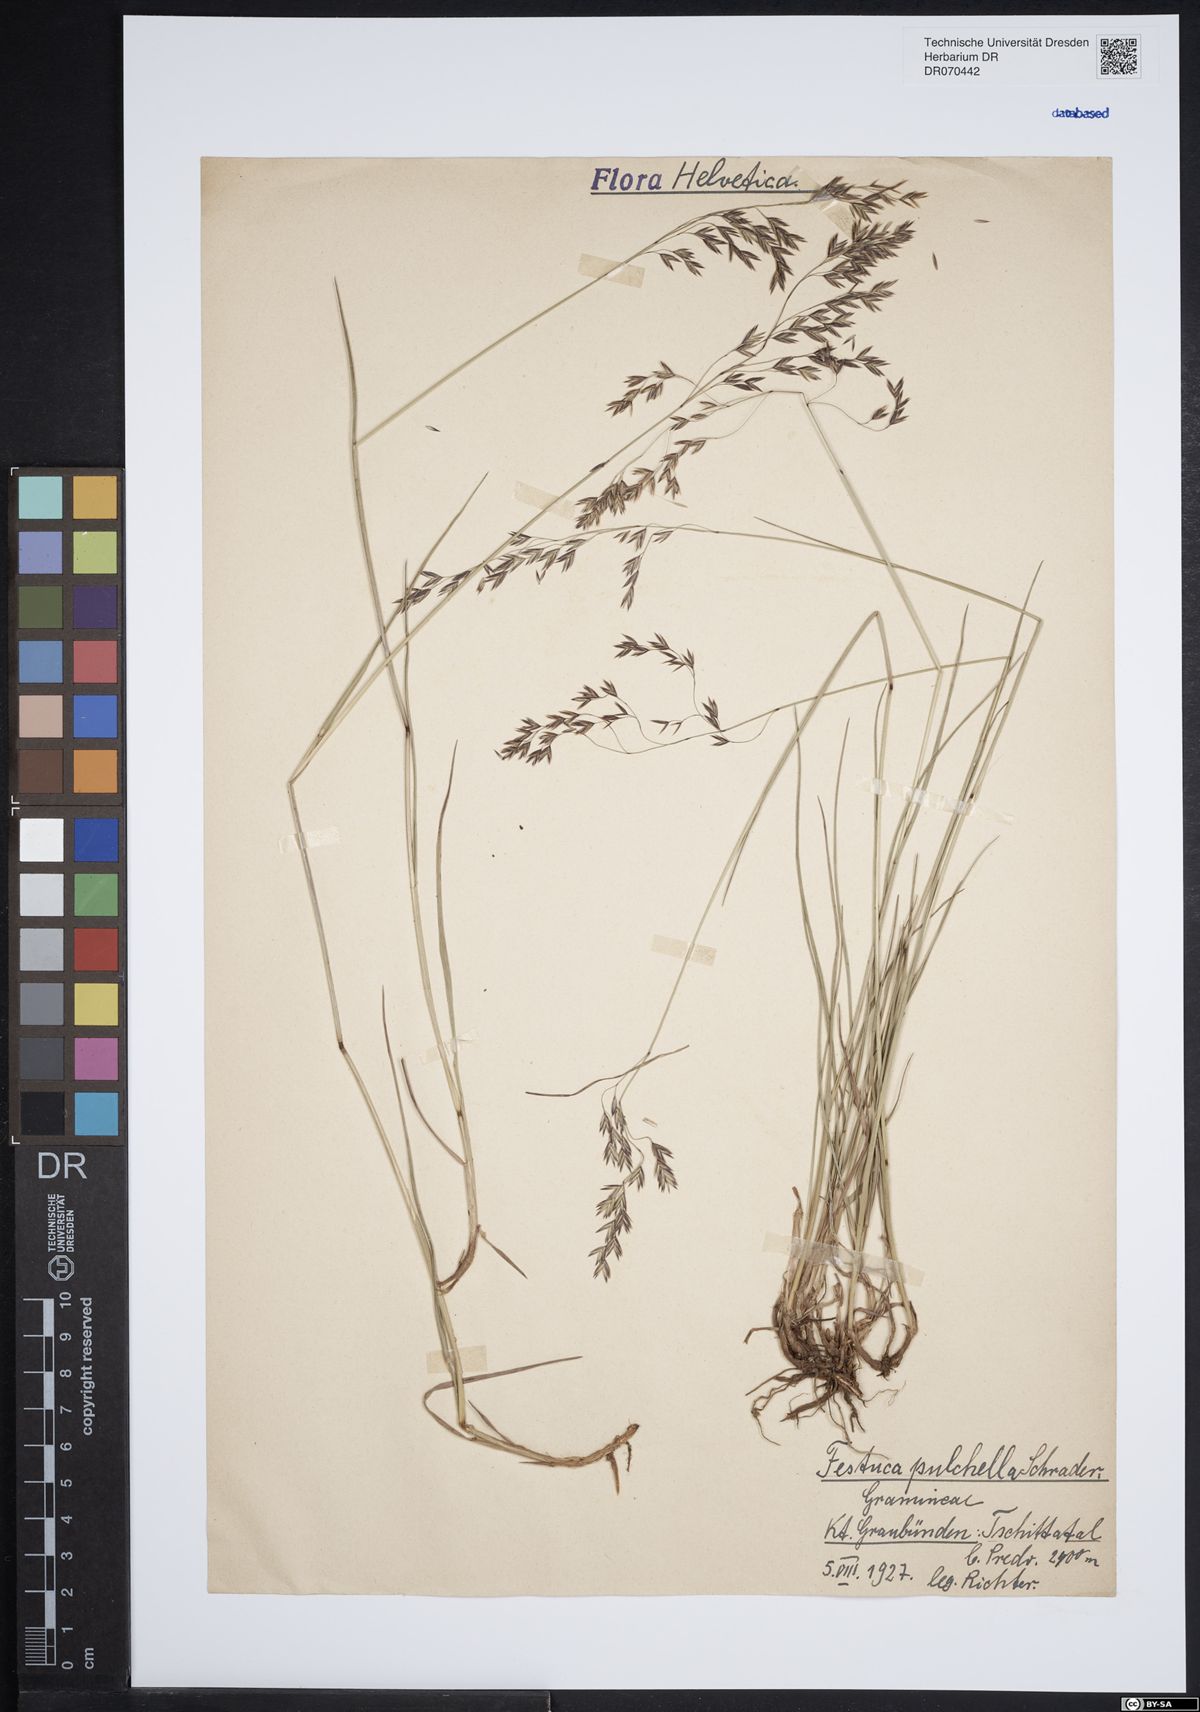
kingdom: Plantae
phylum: Tracheophyta
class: Liliopsida
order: Poales
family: Poaceae
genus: Festuca
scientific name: Festuca pulchella
